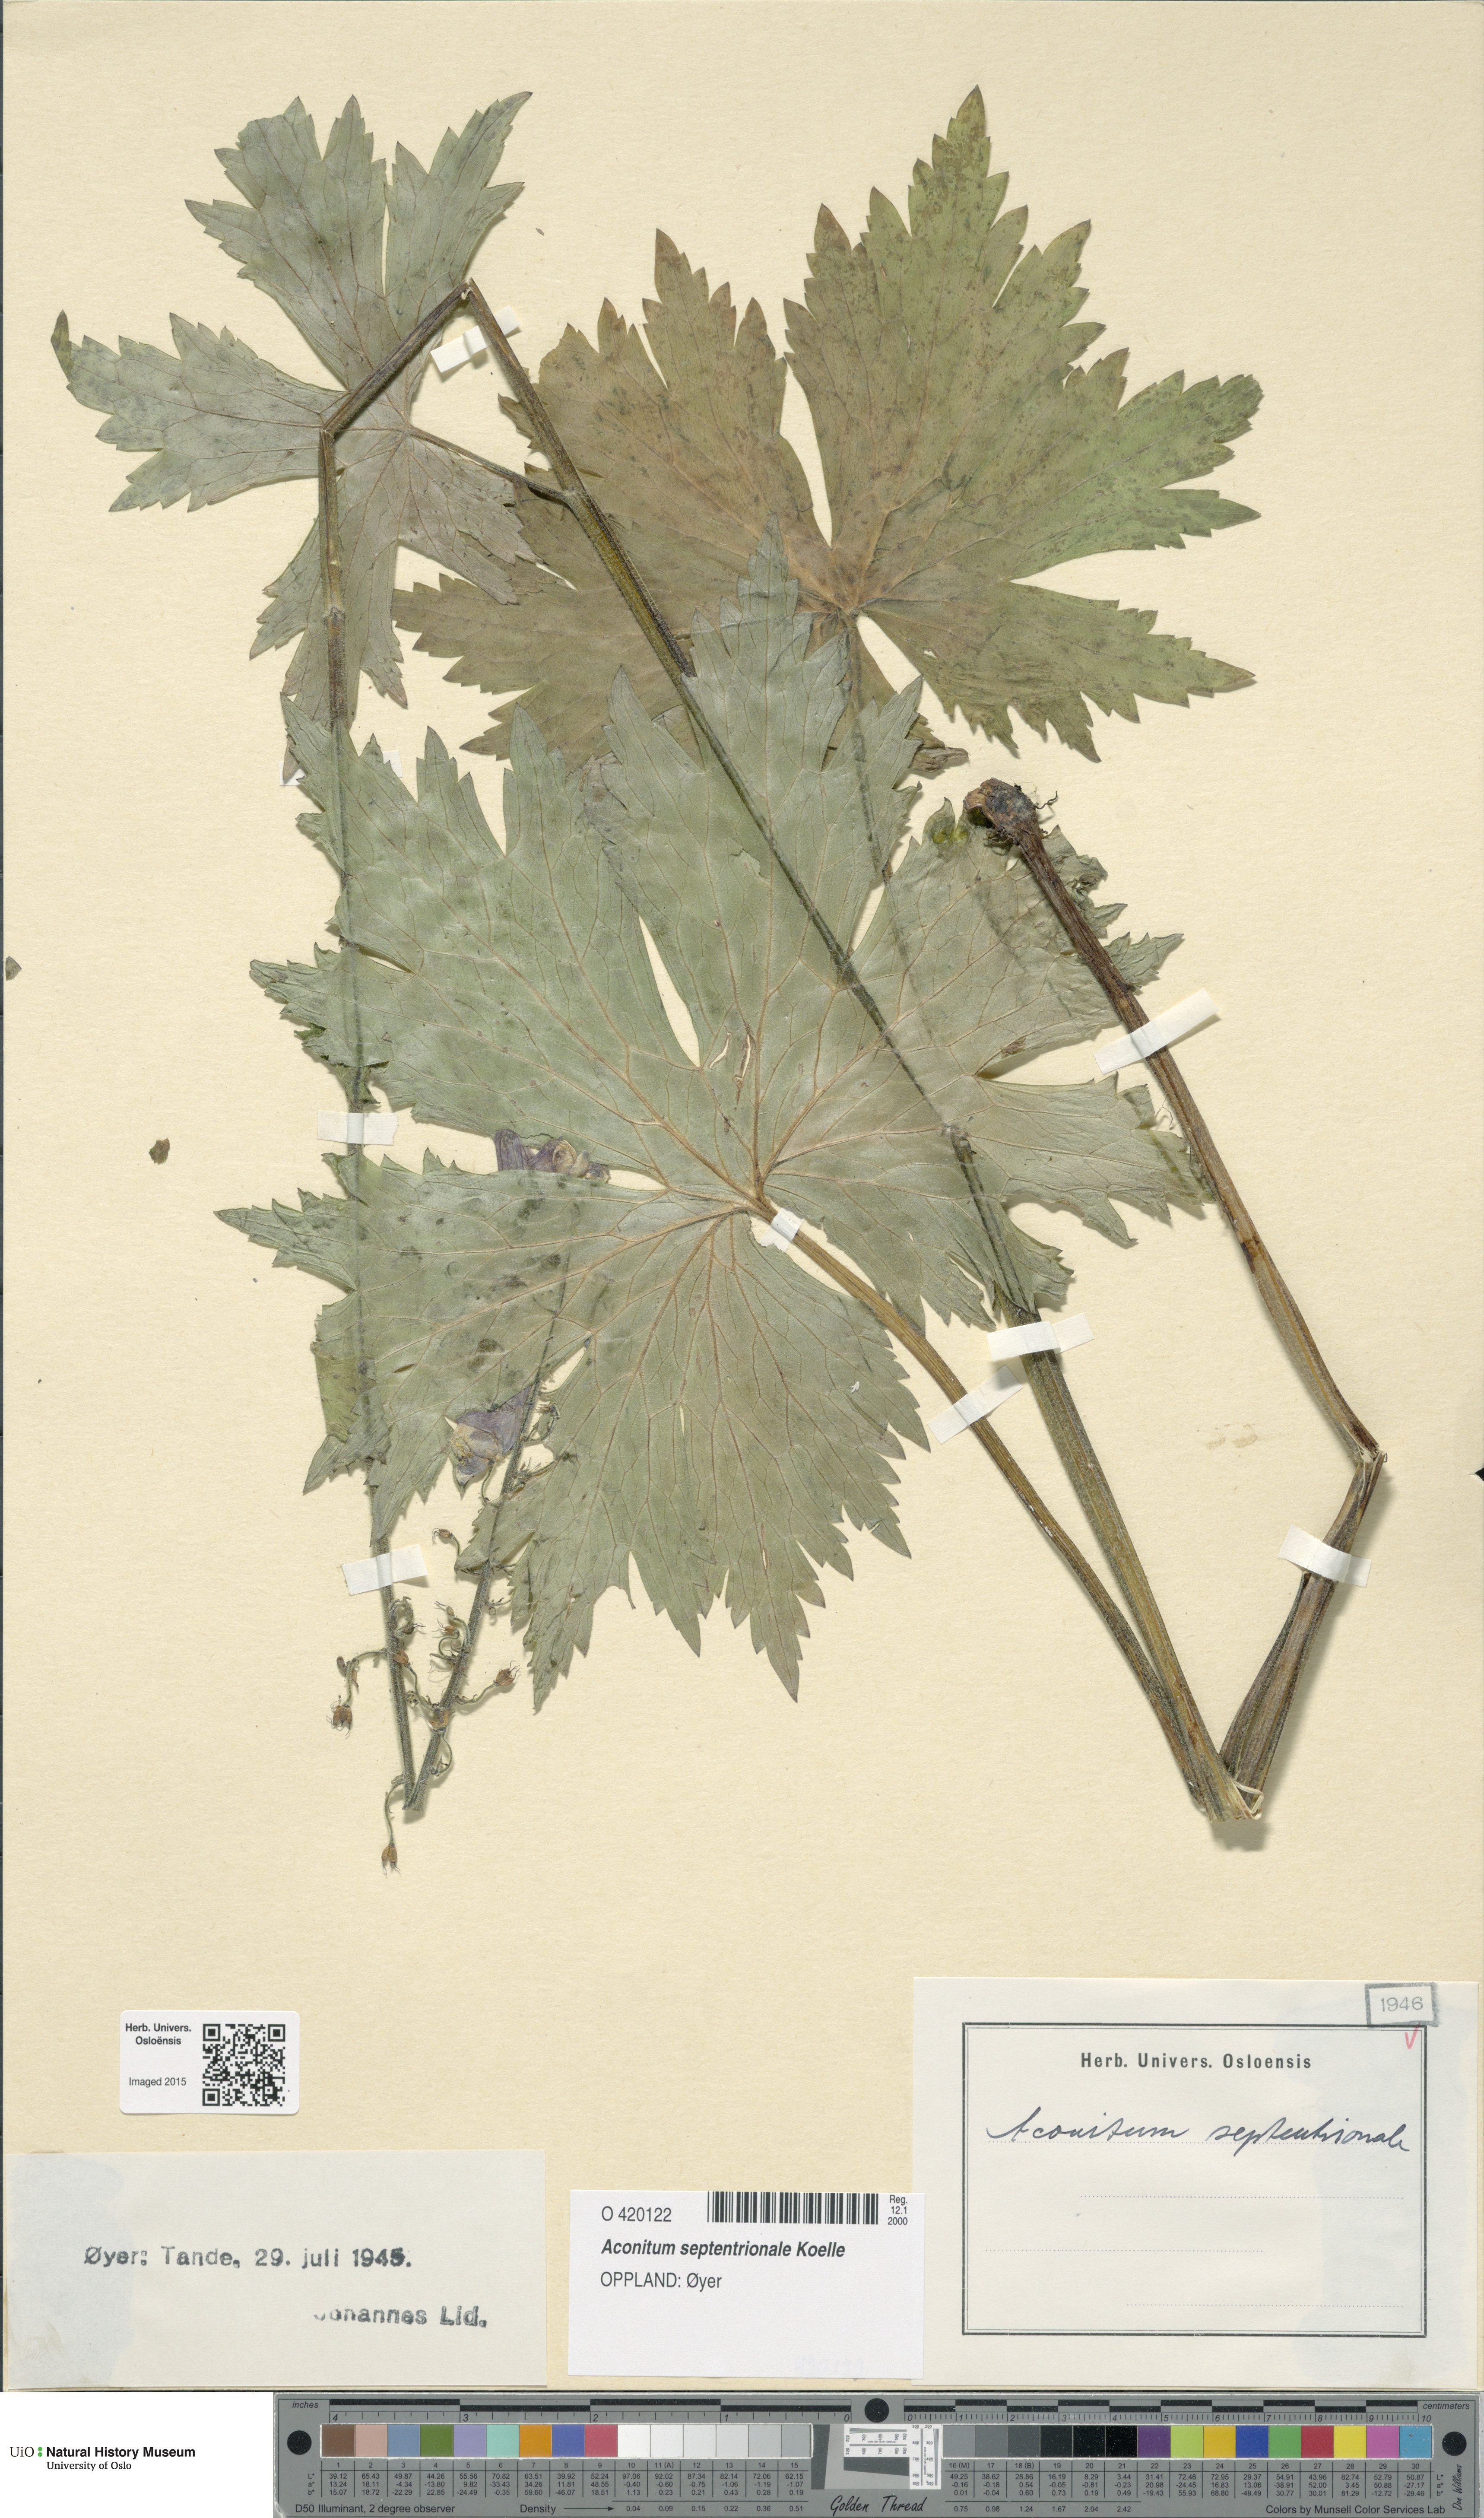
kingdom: Plantae
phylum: Tracheophyta
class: Magnoliopsida
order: Ranunculales
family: Ranunculaceae
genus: Aconitum
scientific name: Aconitum septentrionale
